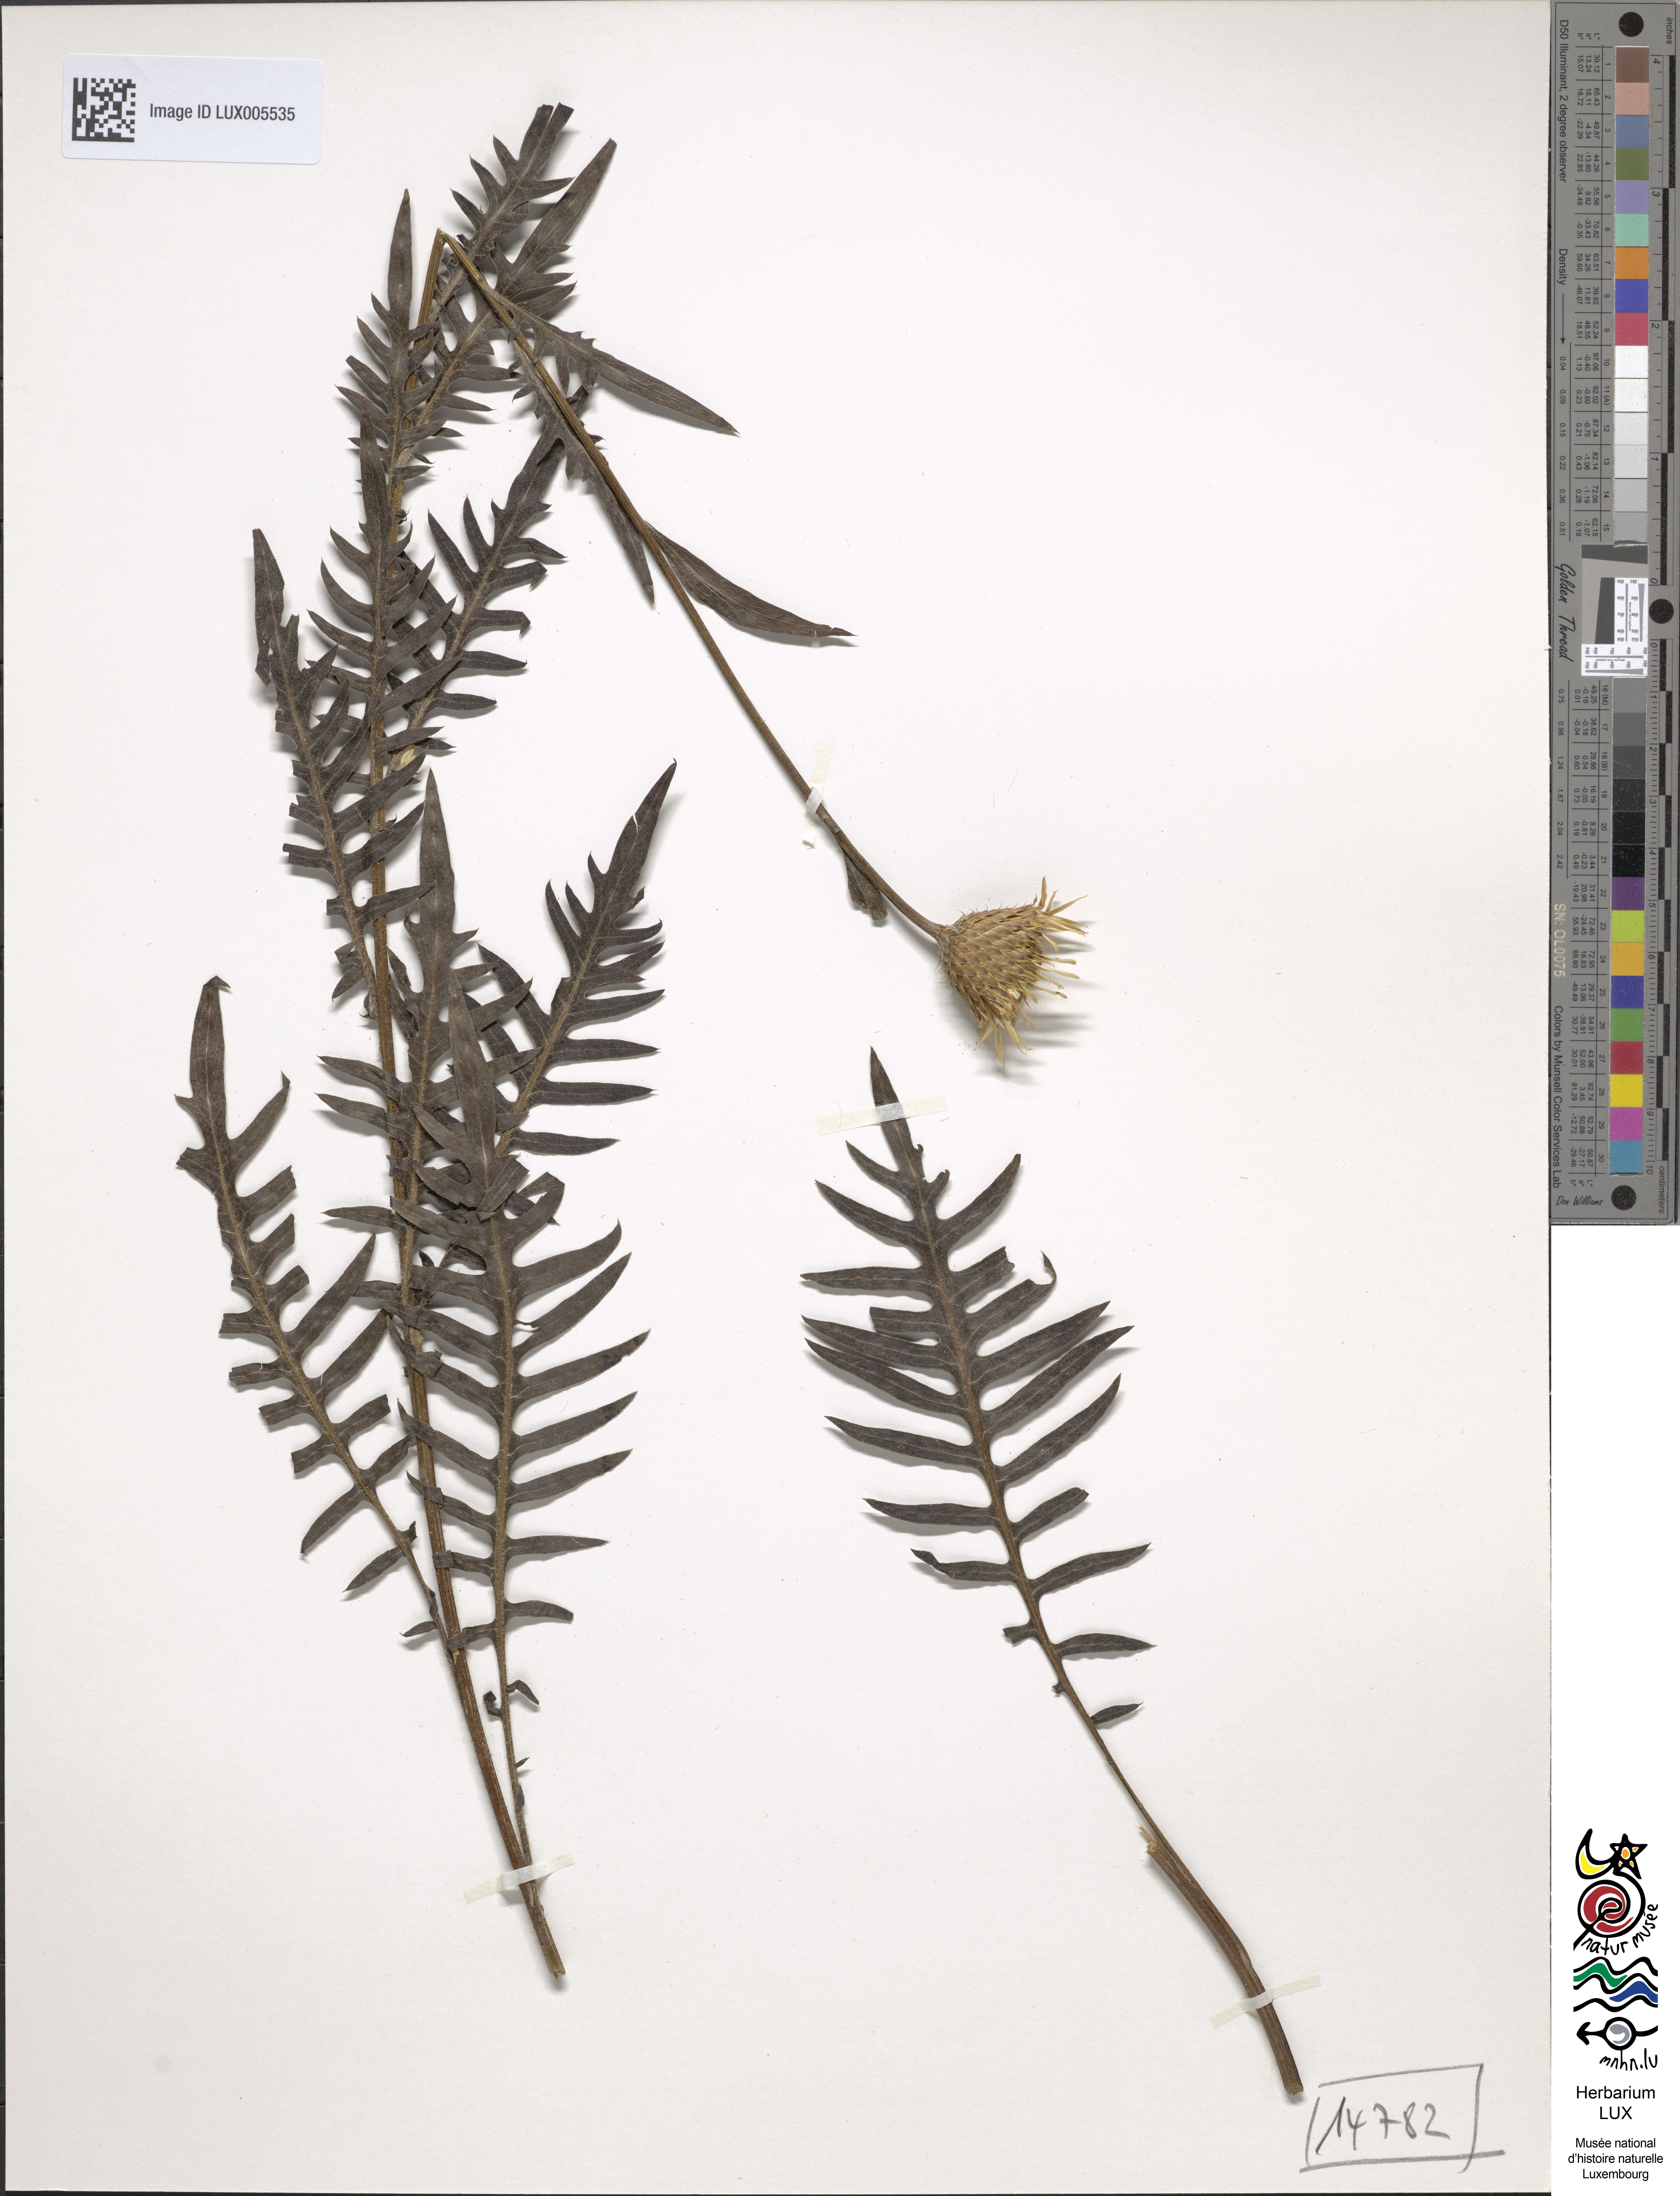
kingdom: Plantae
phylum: Tracheophyta
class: Magnoliopsida
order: Asterales
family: Asteraceae
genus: Klasea
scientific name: Klasea radiata
